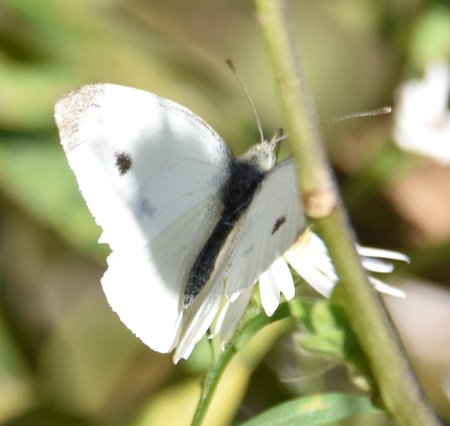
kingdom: Animalia
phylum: Arthropoda
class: Insecta
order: Lepidoptera
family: Pieridae
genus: Pieris
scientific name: Pieris rapae
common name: Cabbage White
